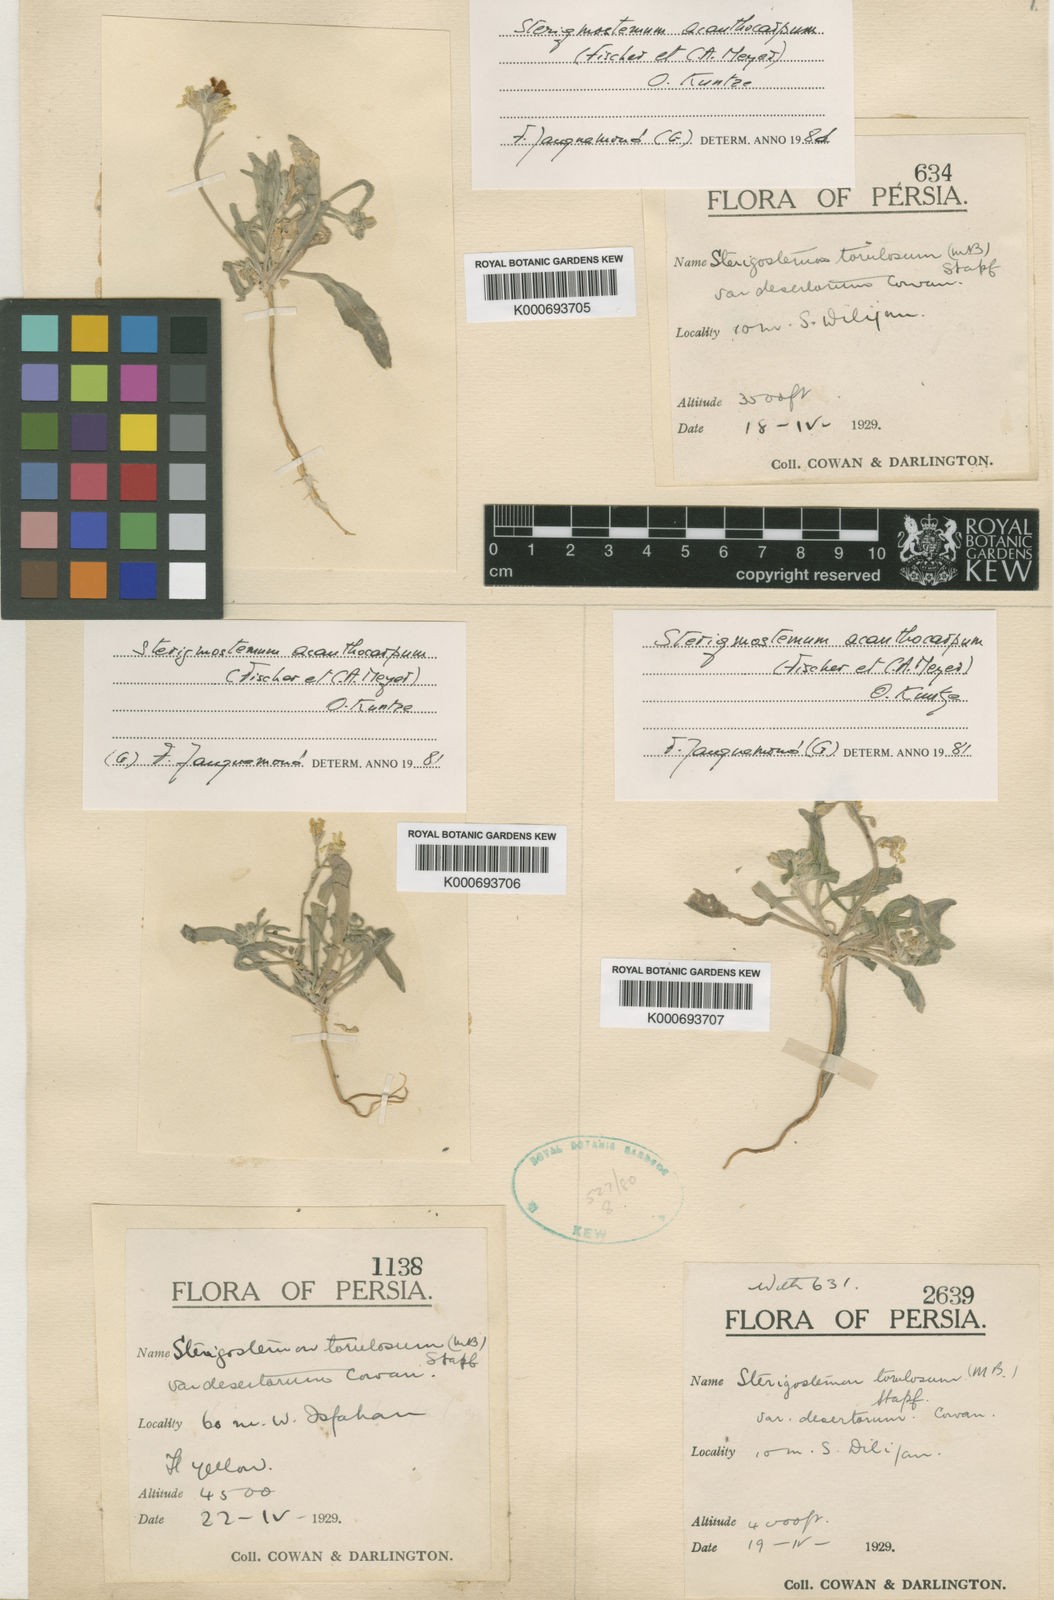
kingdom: Plantae
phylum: Tracheophyta
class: Magnoliopsida
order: Brassicales
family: Brassicaceae
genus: Sterigmostemum
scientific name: Sterigmostemum
